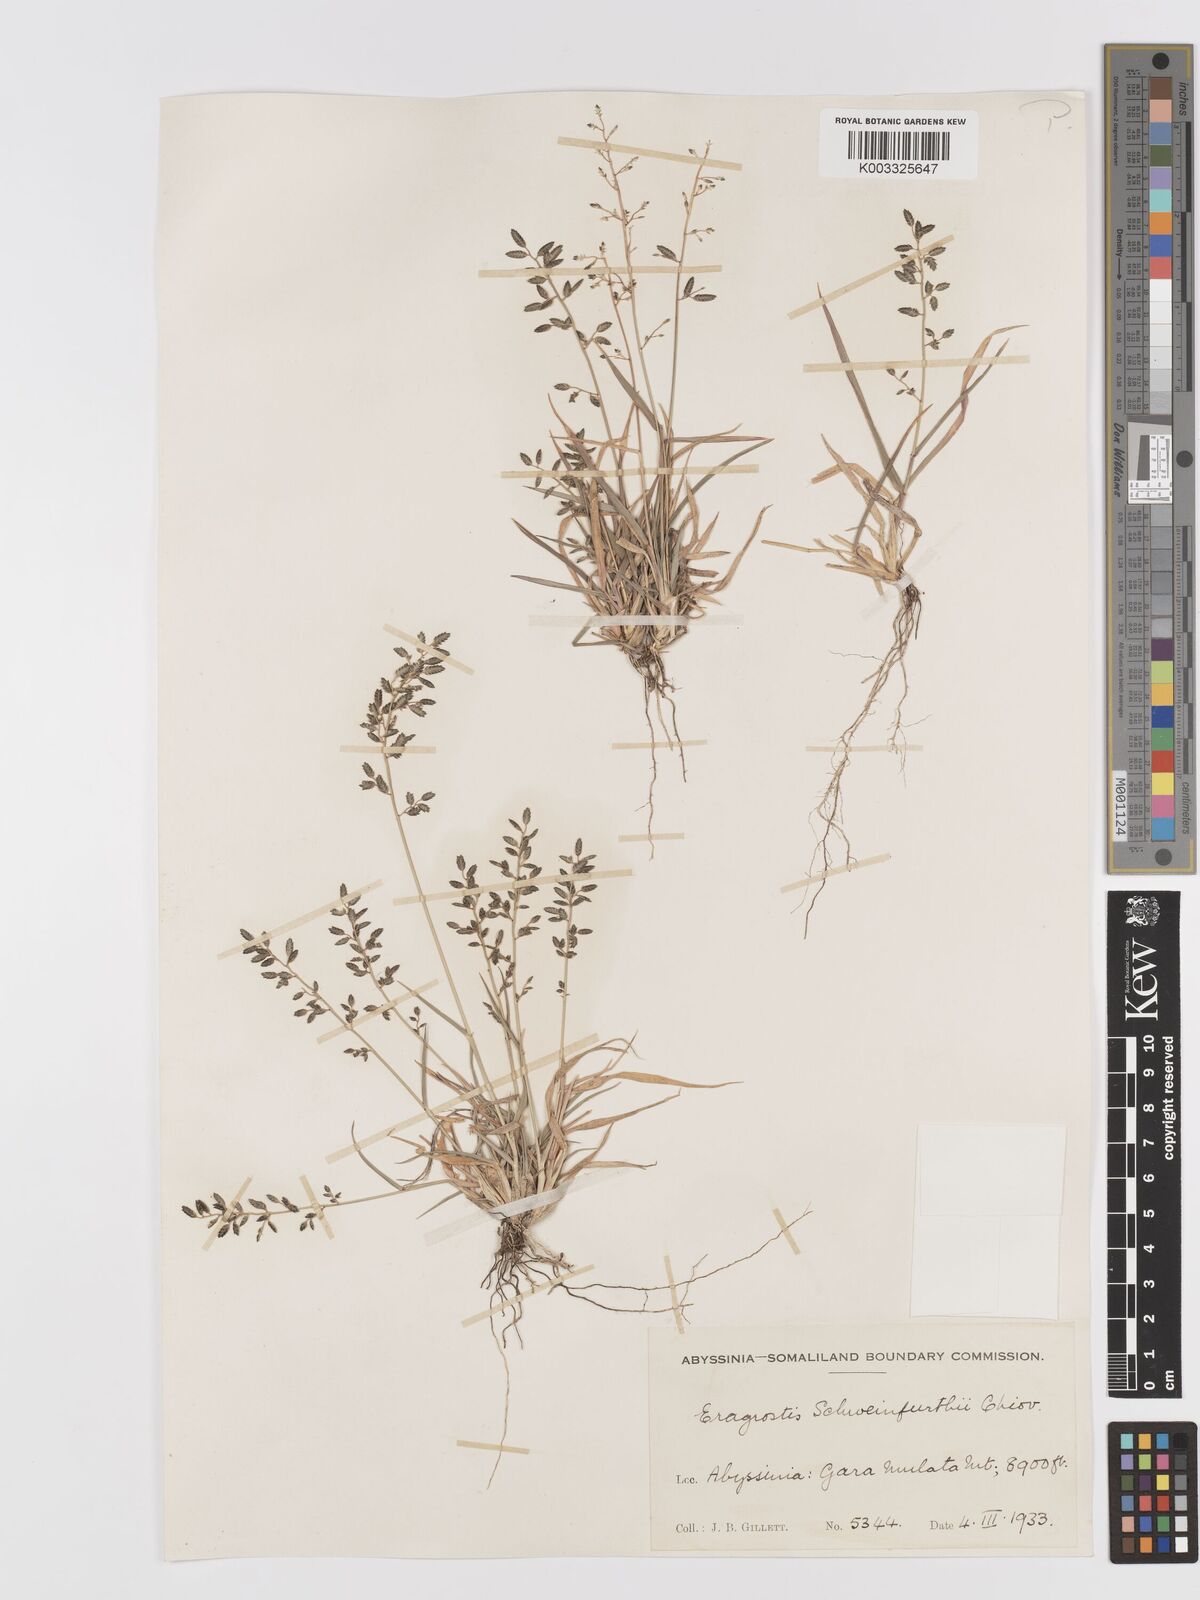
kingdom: Plantae
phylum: Tracheophyta
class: Liliopsida
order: Poales
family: Poaceae
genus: Eragrostis
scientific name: Eragrostis schweinfurthii
